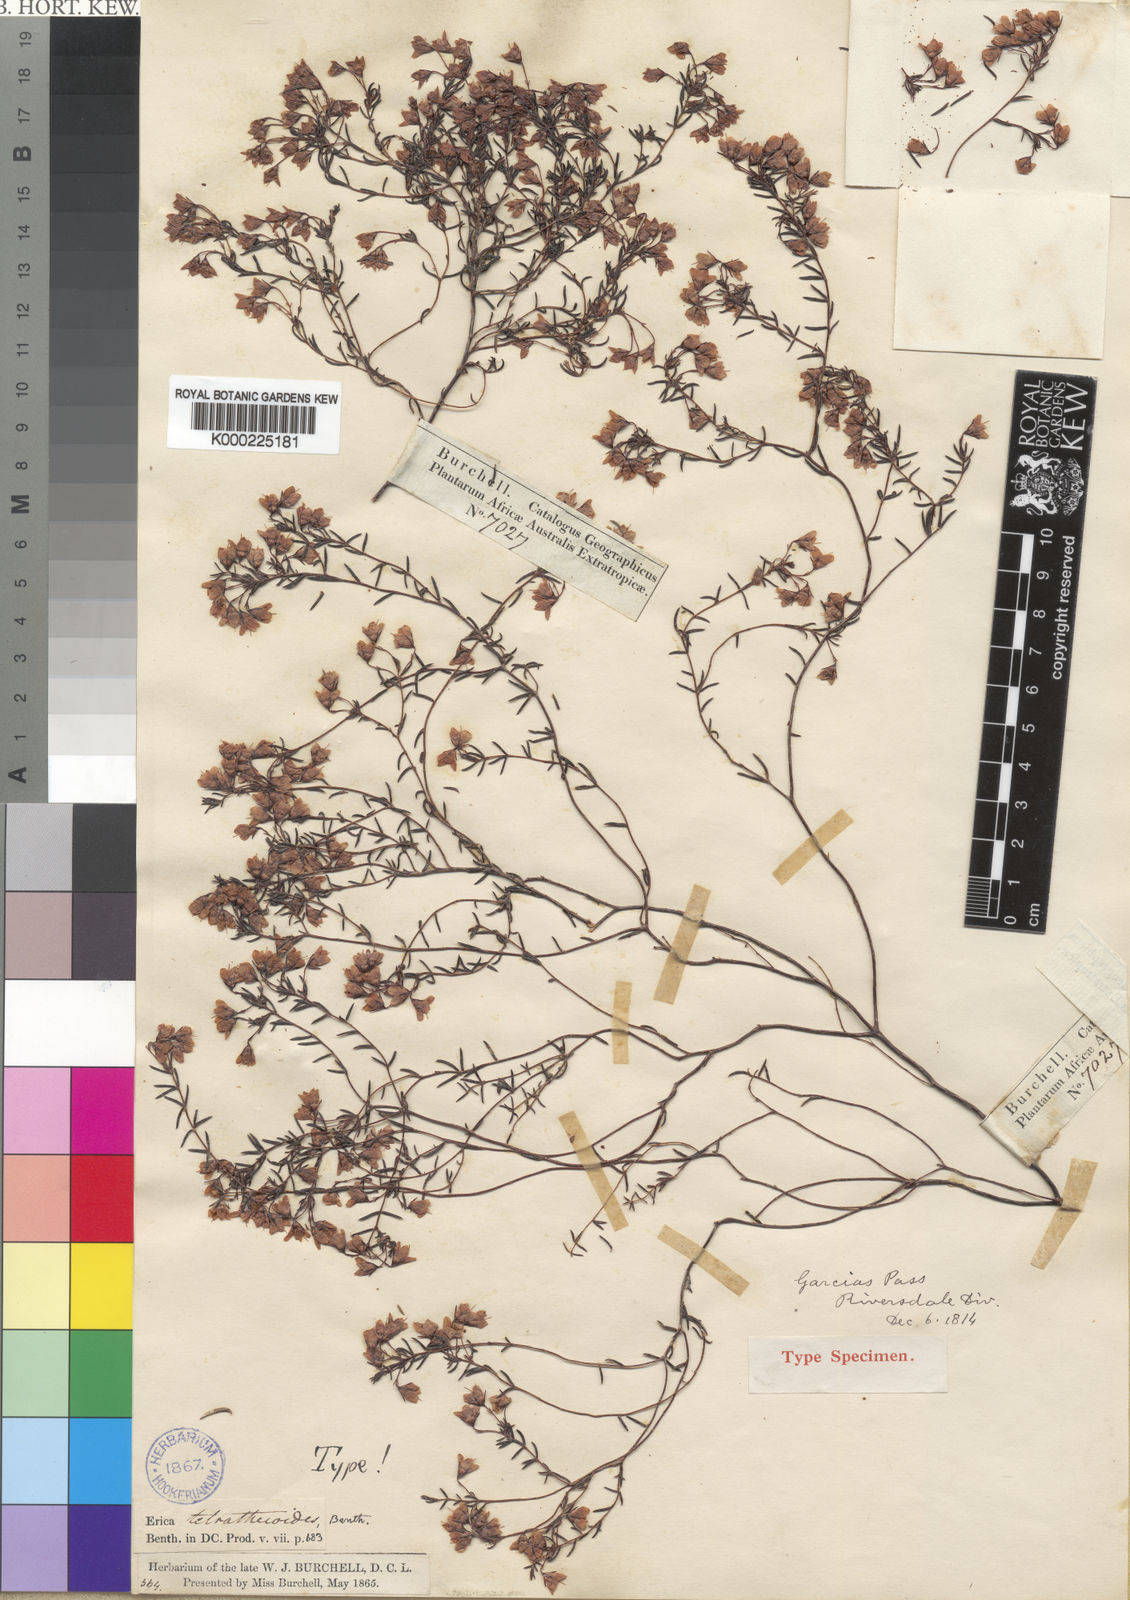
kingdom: Plantae
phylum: Tracheophyta
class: Magnoliopsida
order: Ericales
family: Ericaceae
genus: Erica
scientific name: Erica tetrathecoides
